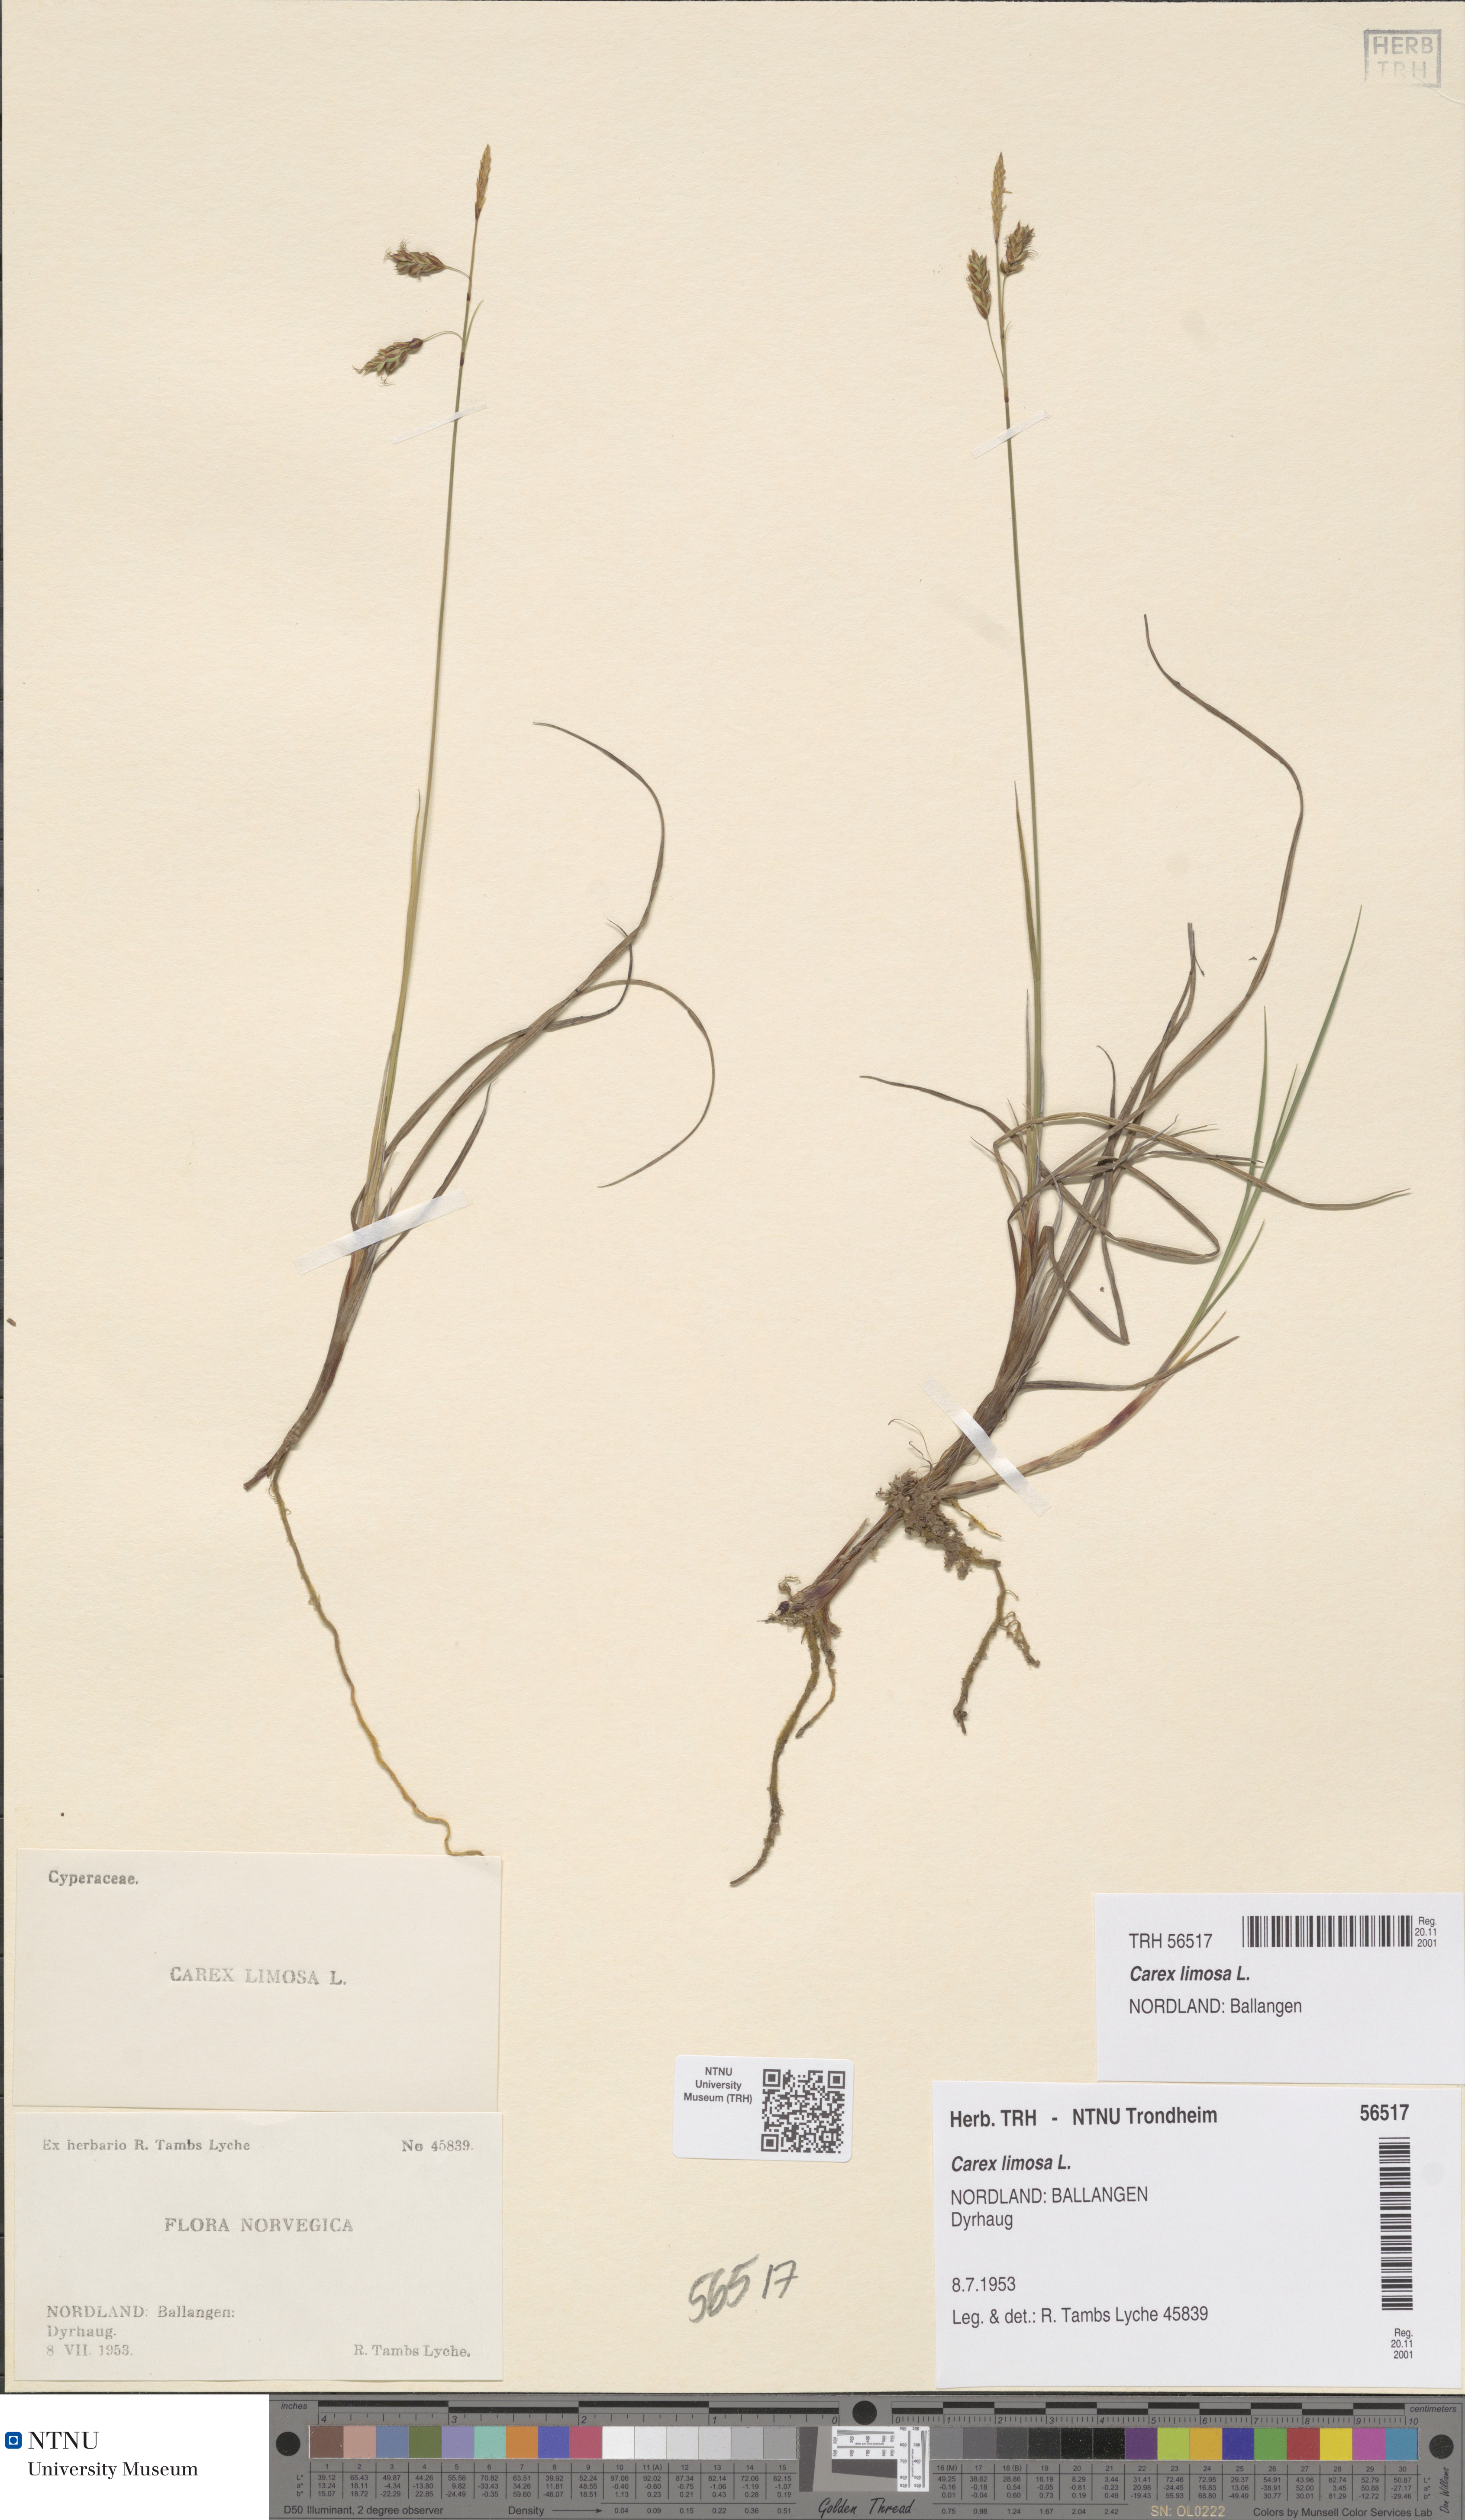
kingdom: Plantae
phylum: Tracheophyta
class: Liliopsida
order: Poales
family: Cyperaceae
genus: Carex
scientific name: Carex limosa
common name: Bog sedge
